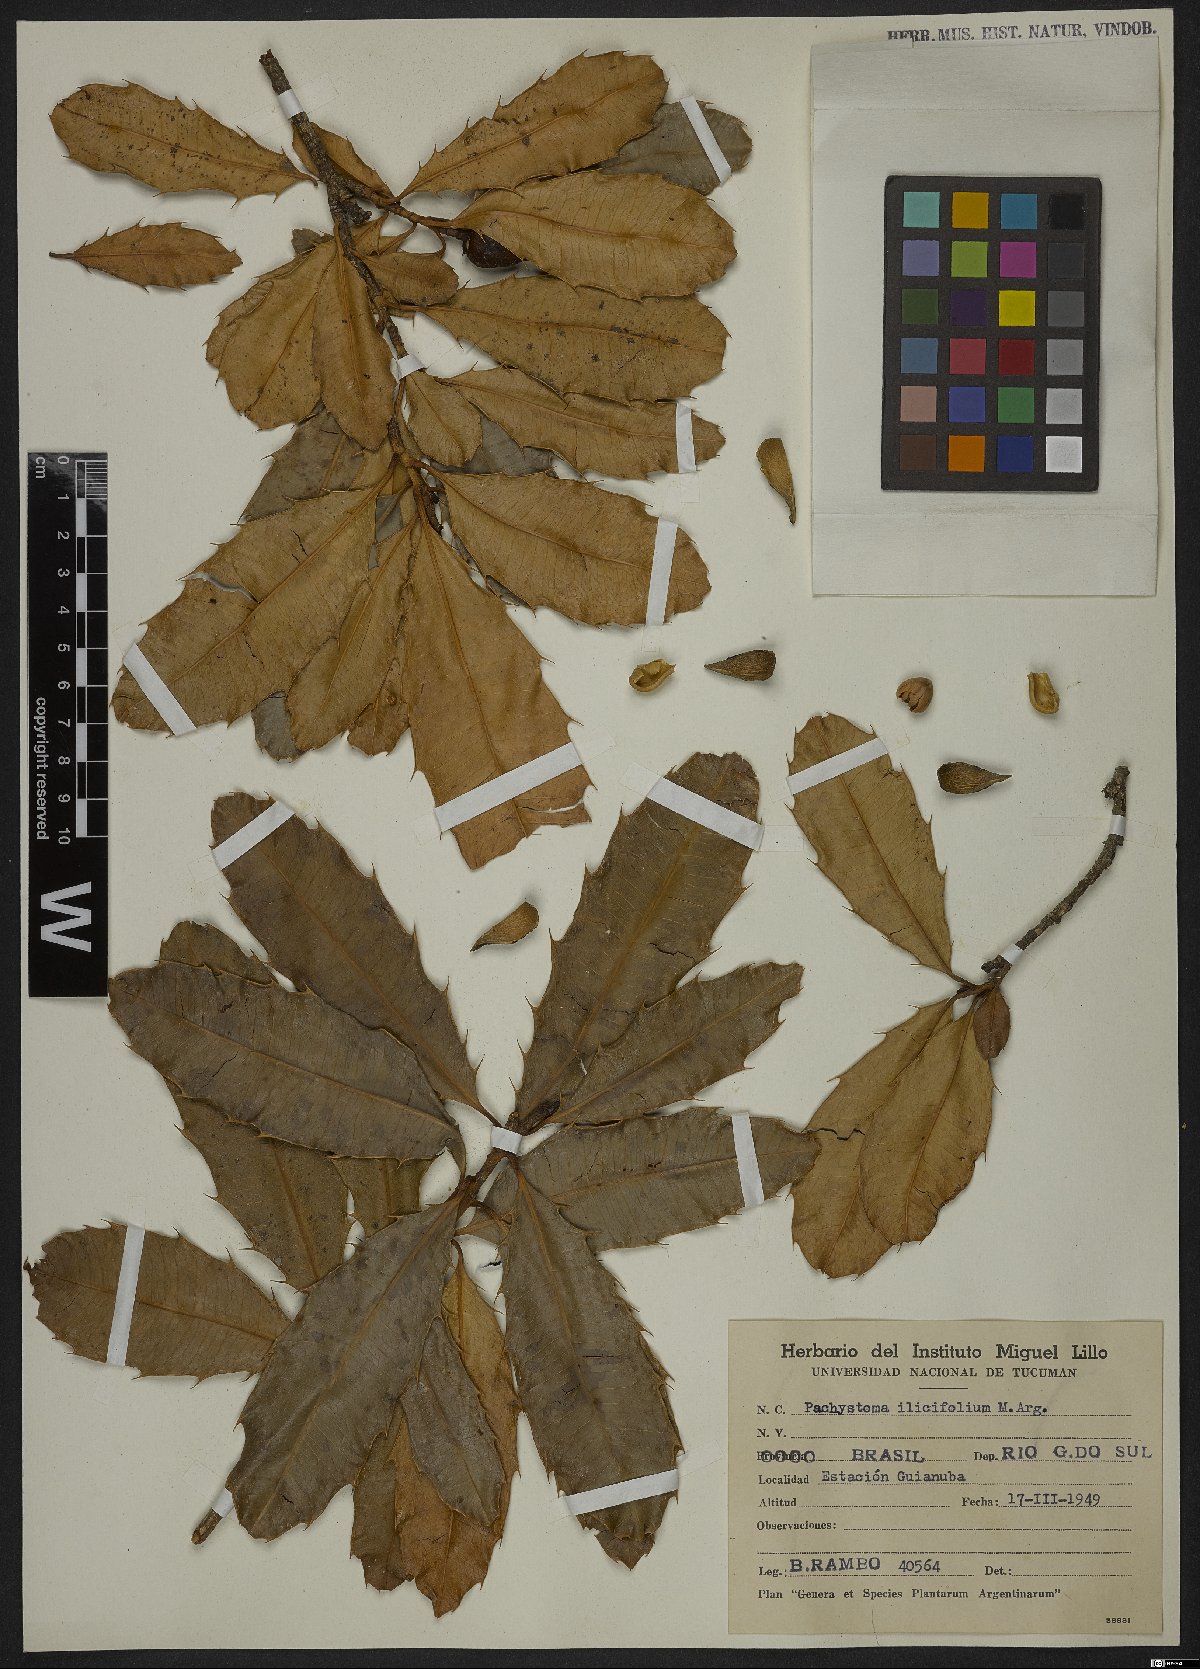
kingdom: Plantae
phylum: Tracheophyta
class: Magnoliopsida
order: Malpighiales
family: Euphorbiaceae
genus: Pachystroma
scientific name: Pachystroma longifolium
